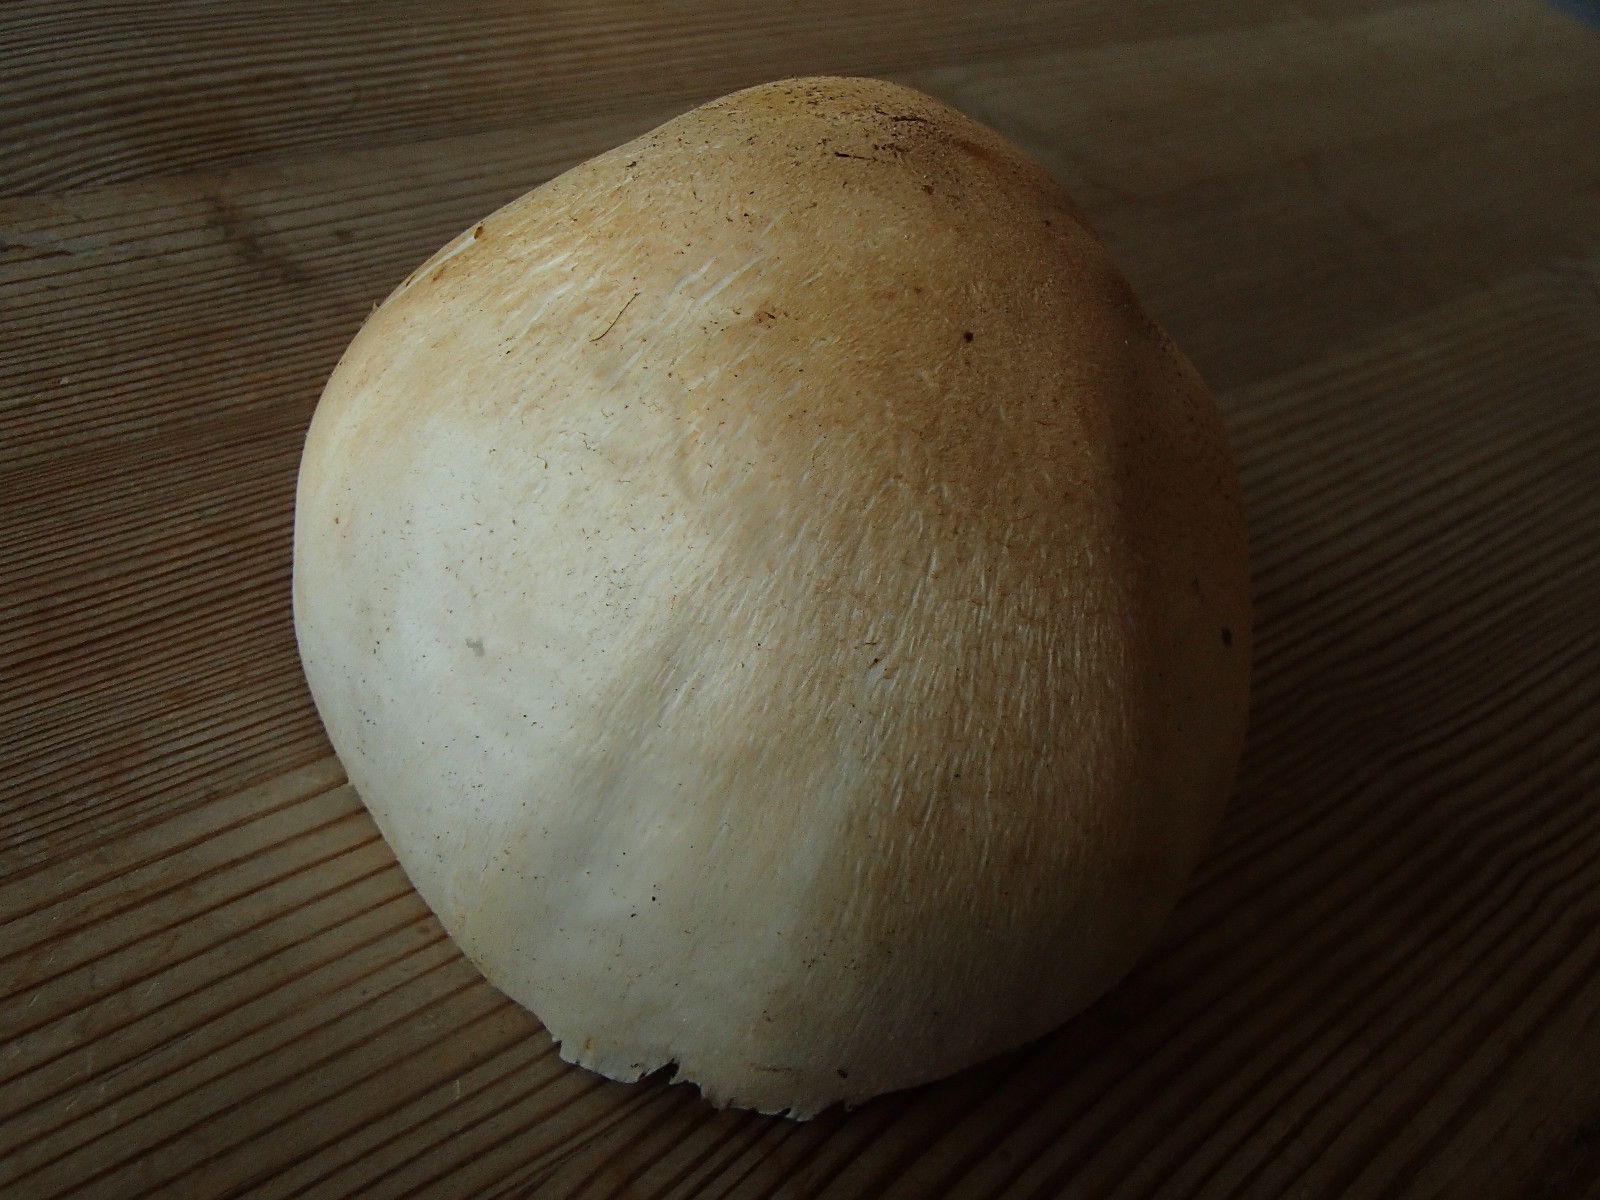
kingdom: Fungi
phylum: Basidiomycota
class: Agaricomycetes
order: Agaricales
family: Agaricaceae
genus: Agaricus
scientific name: Agaricus
